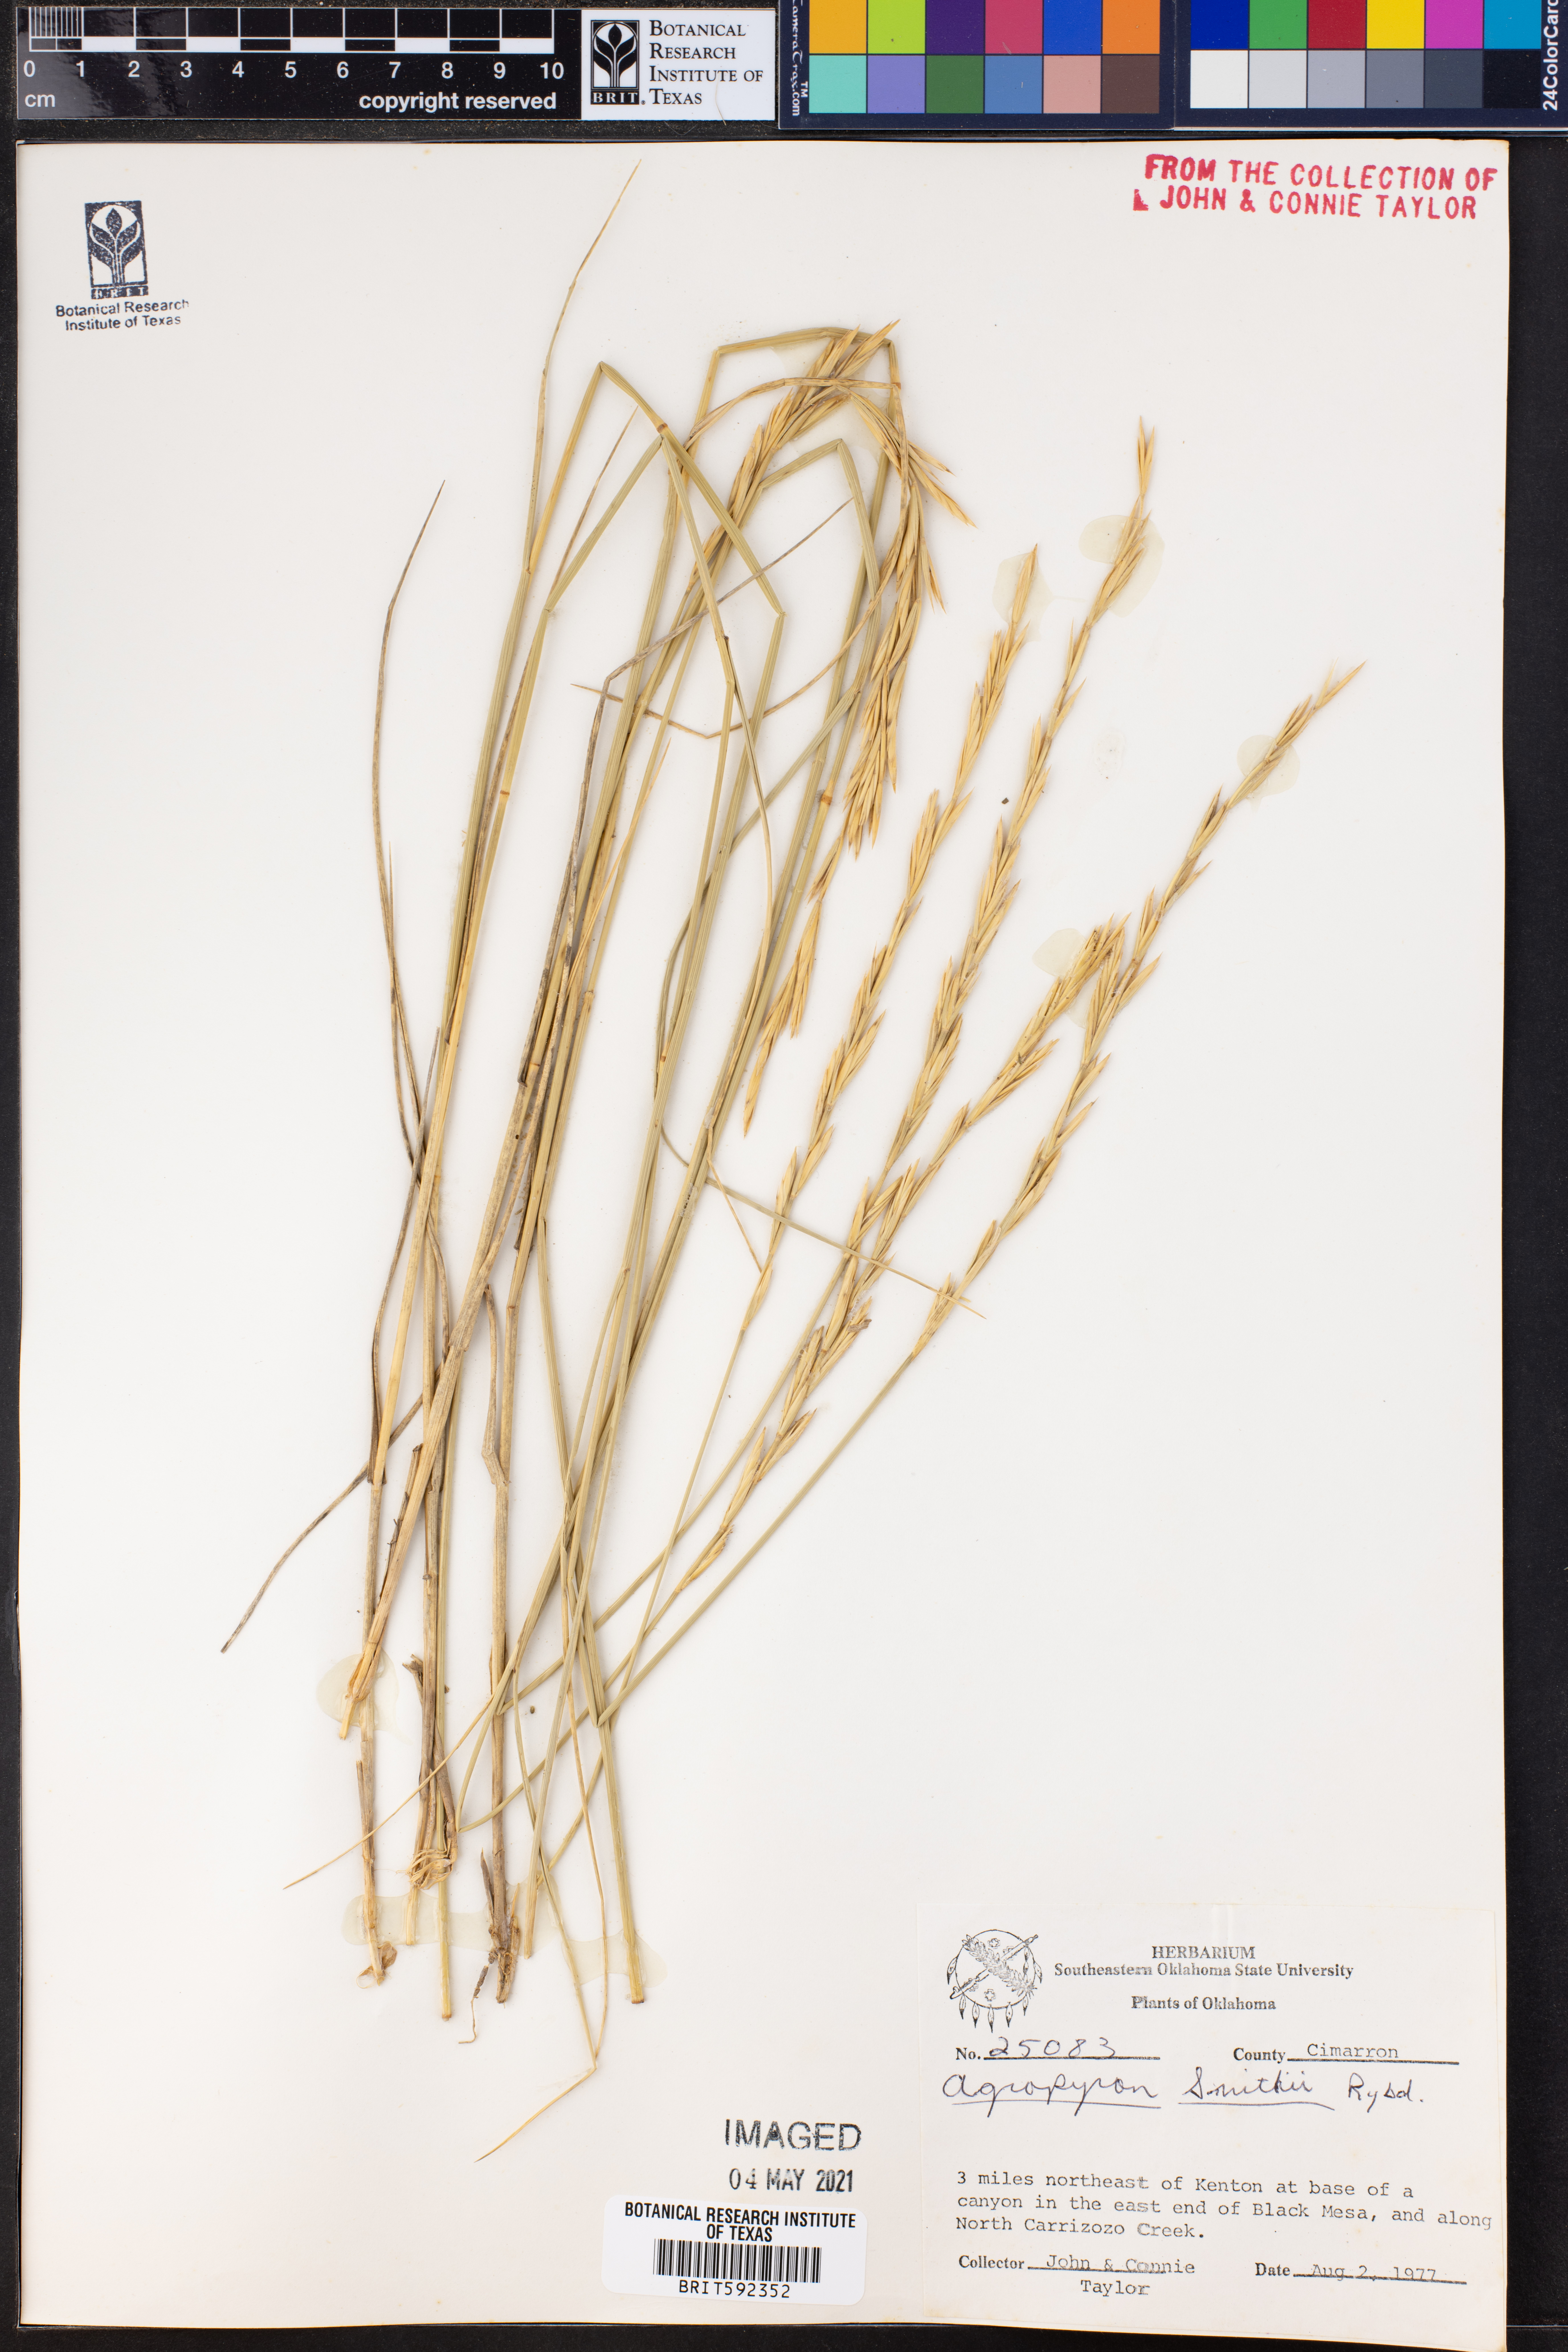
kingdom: Plantae
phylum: Tracheophyta
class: Liliopsida
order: Poales
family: Poaceae
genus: Elymus
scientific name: Elymus smithii
